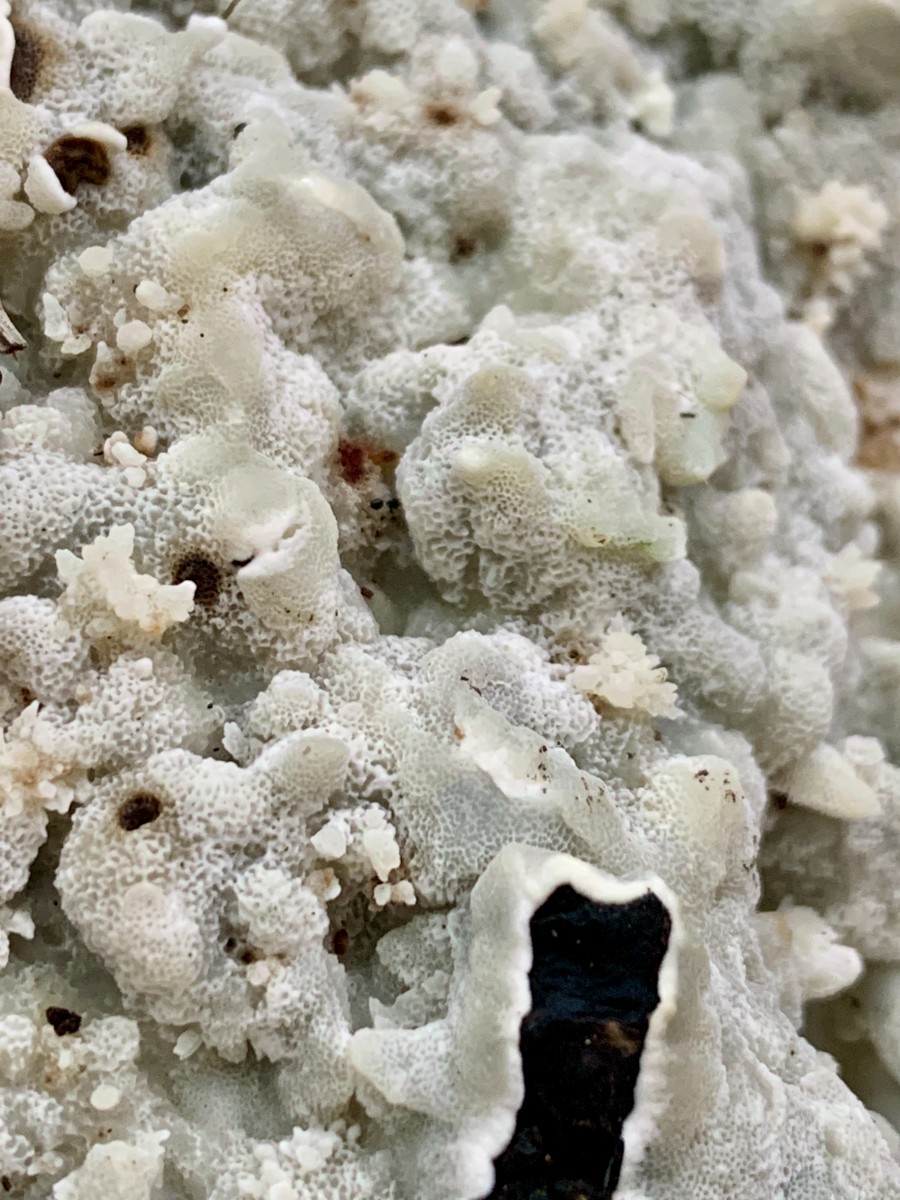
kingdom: Fungi
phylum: Basidiomycota
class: Agaricomycetes
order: Polyporales
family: Meruliaceae
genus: Physisporinus
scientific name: Physisporinus vitreus
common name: mastesvamp
